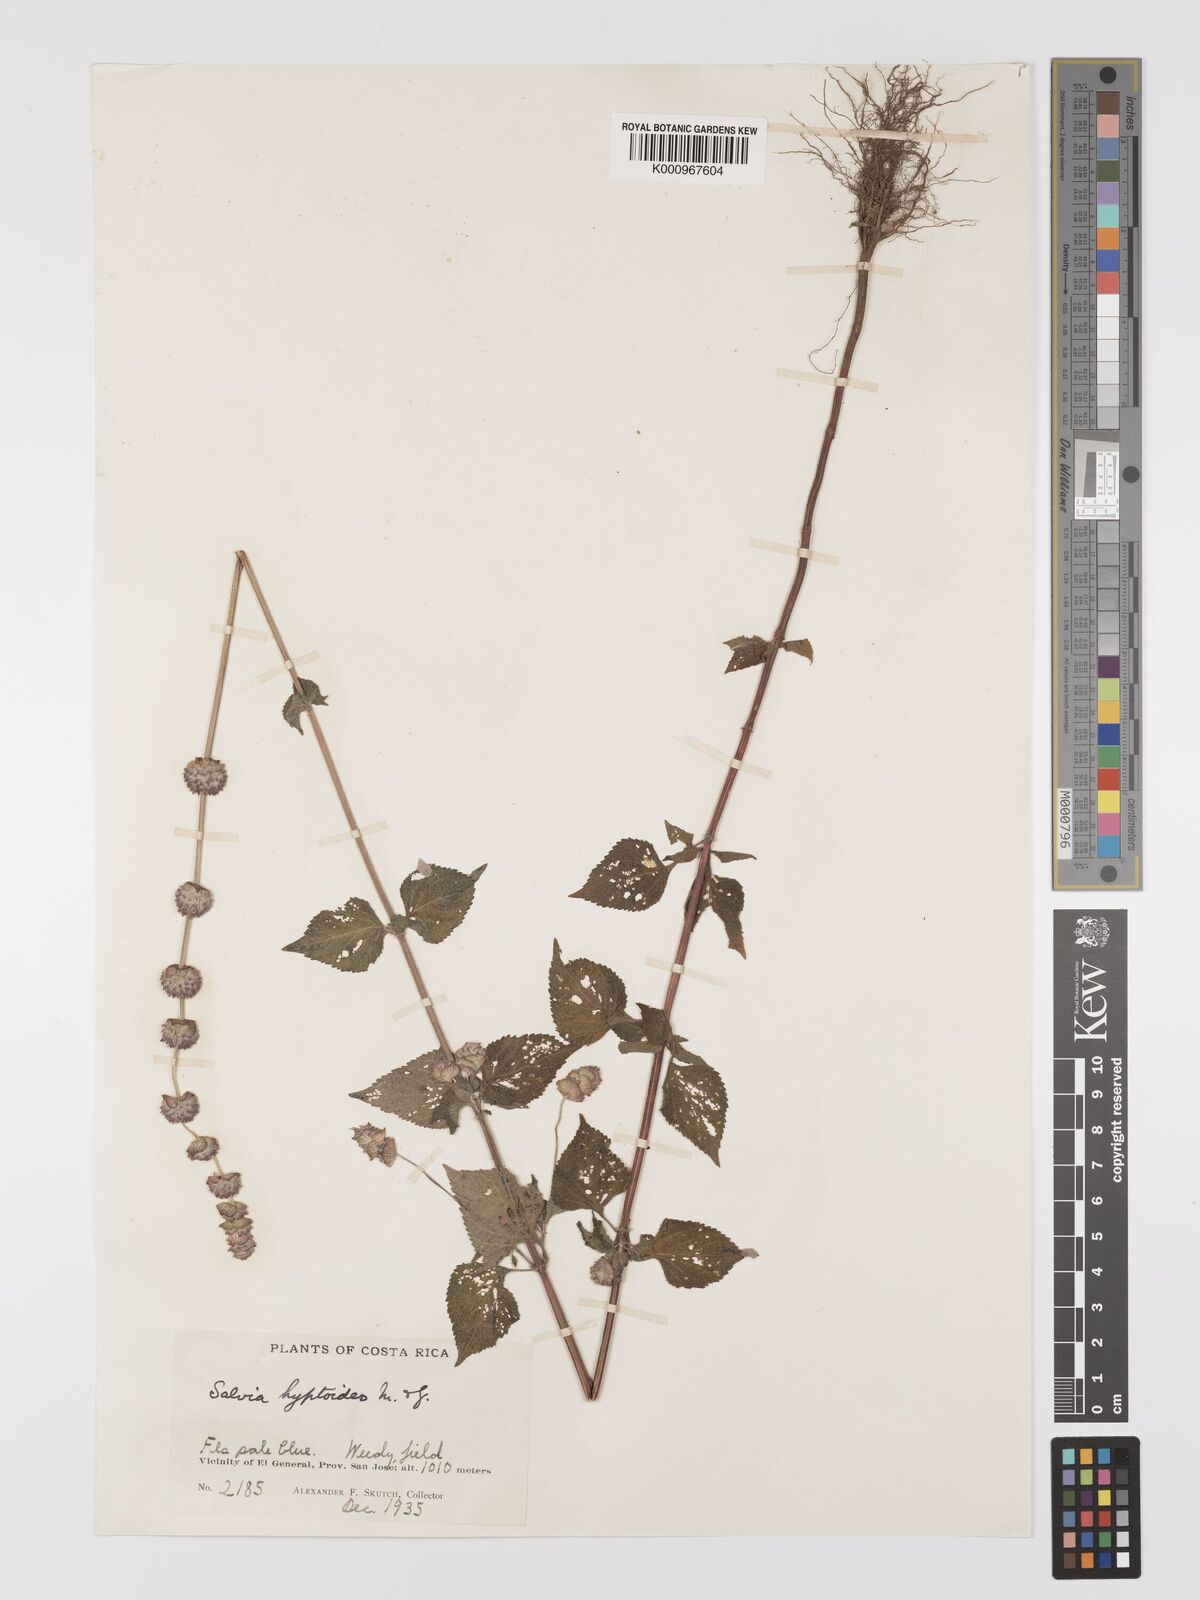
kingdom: Plantae
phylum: Tracheophyta
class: Magnoliopsida
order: Lamiales
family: Lamiaceae
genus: Salvia
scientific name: Salvia lasiocephala
